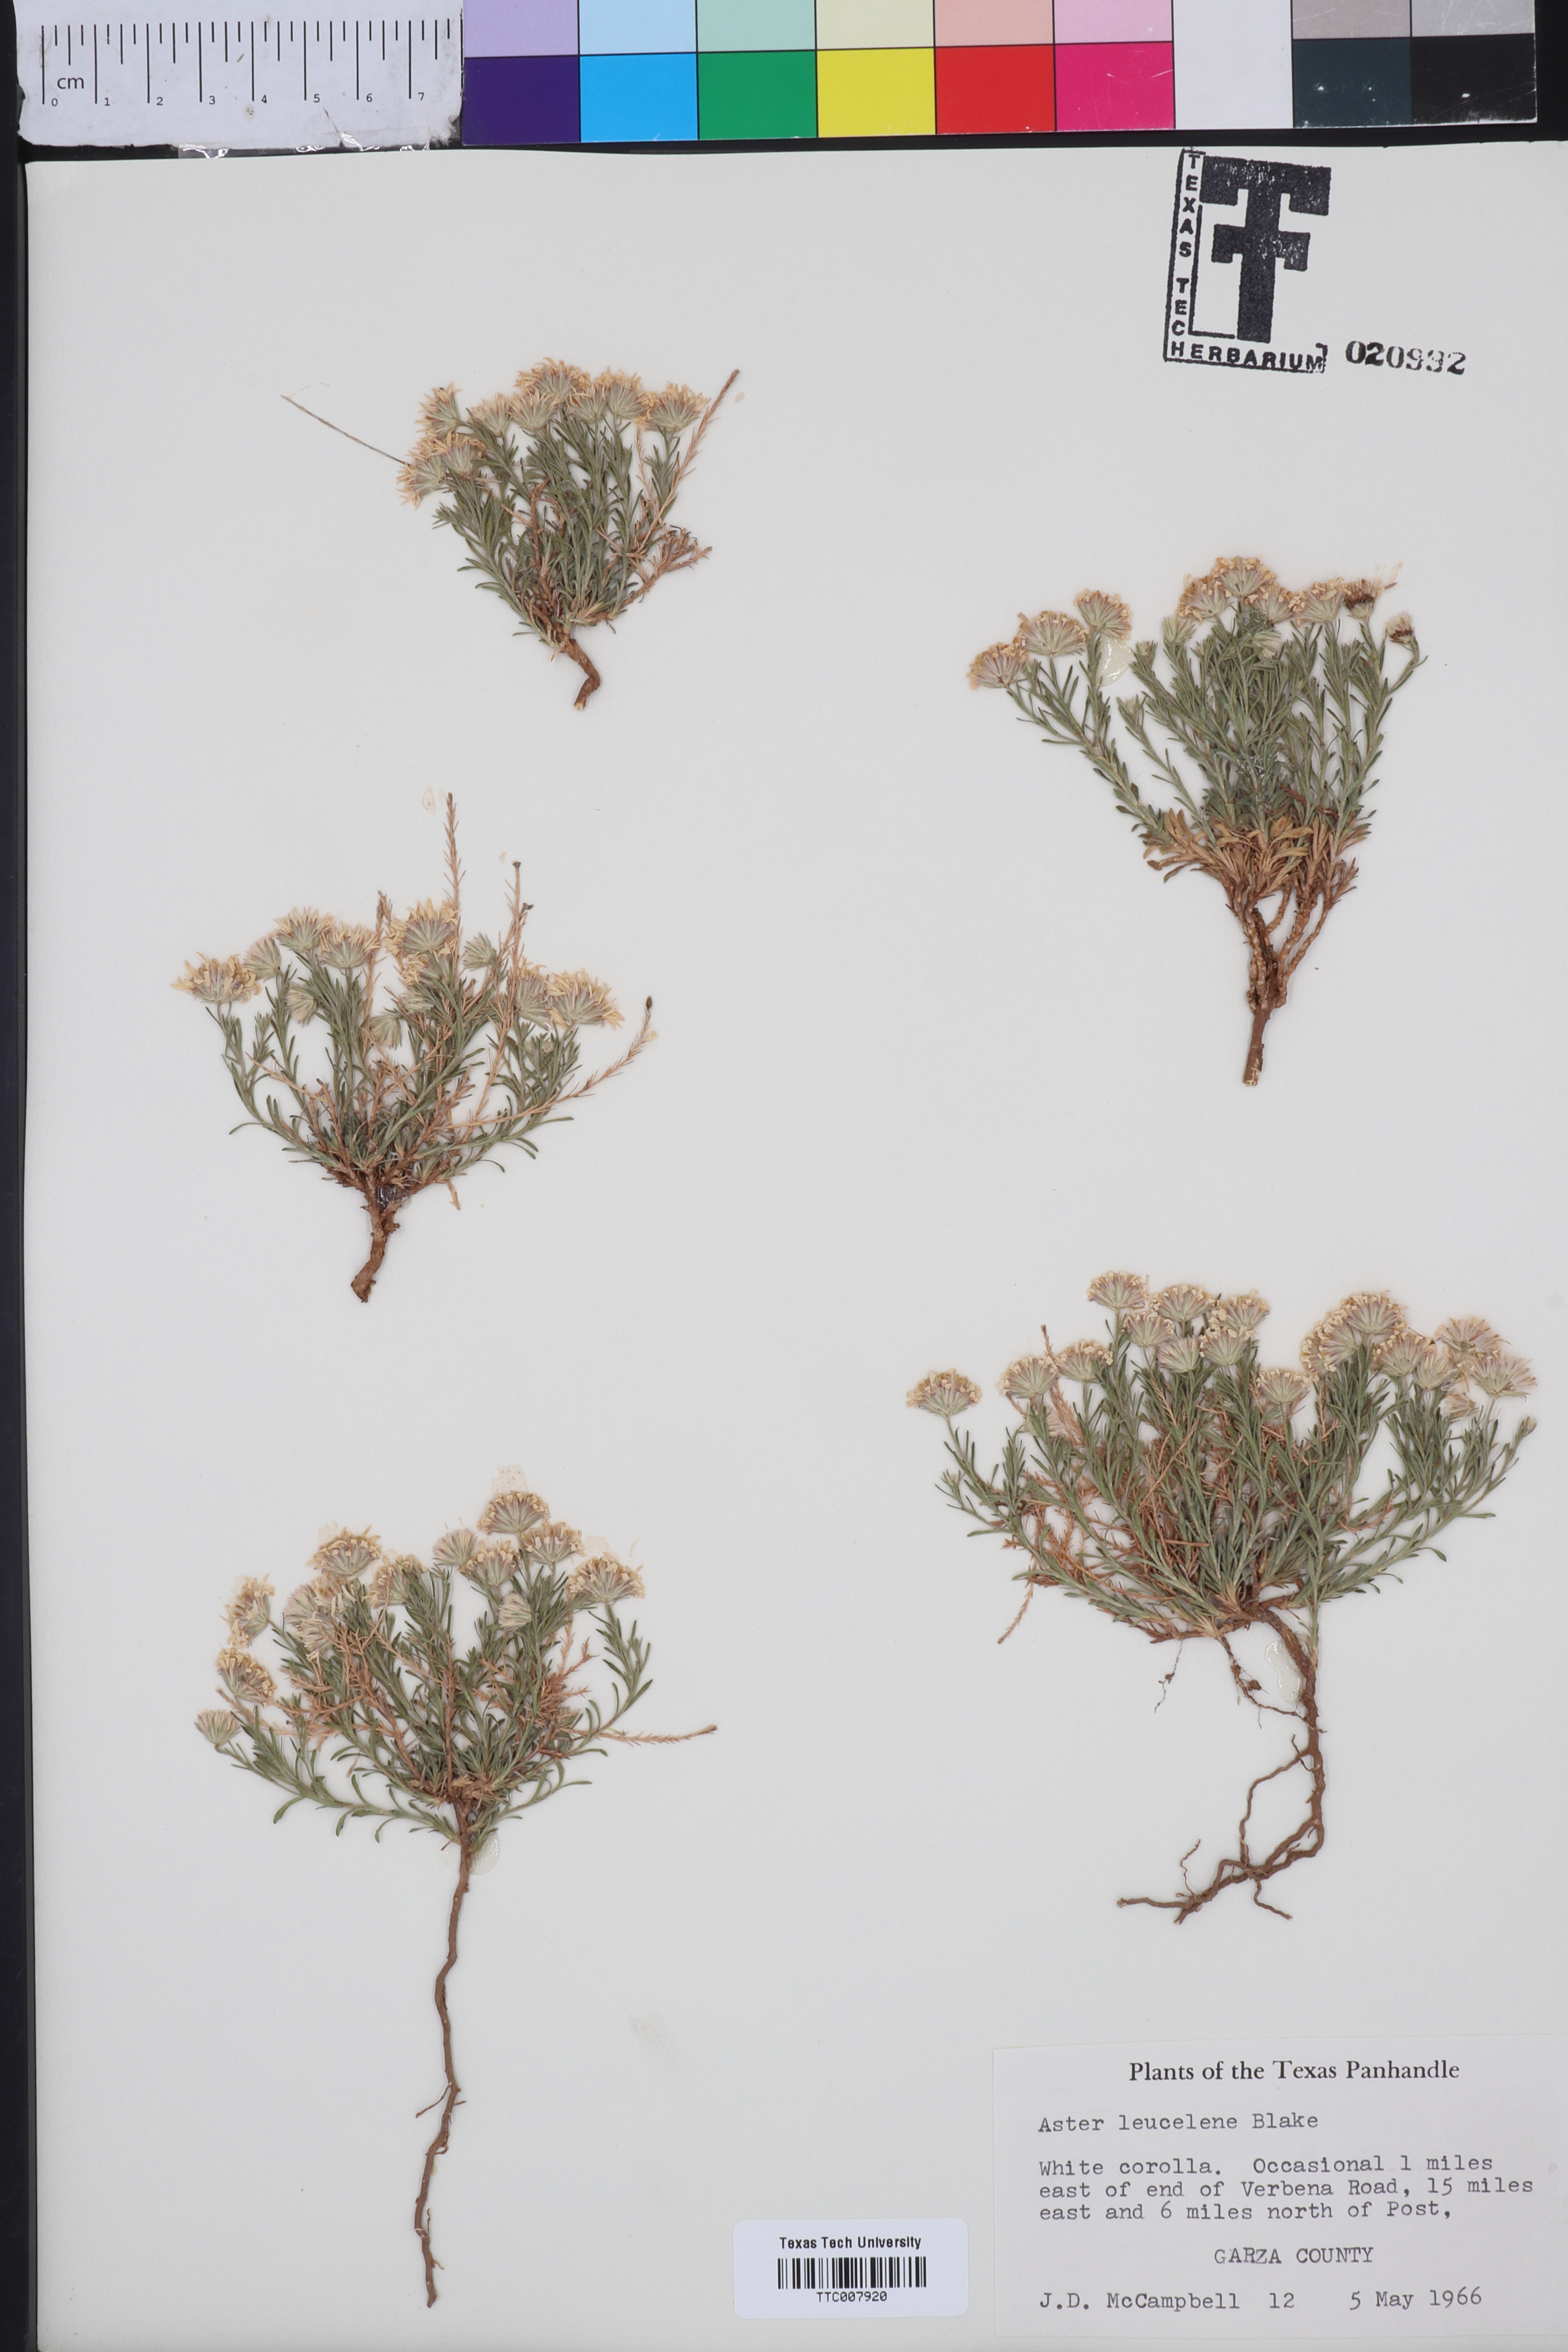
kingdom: Plantae
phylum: Tracheophyta
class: Magnoliopsida
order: Asterales
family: Asteraceae
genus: Chaetopappa
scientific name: Chaetopappa ericoides
